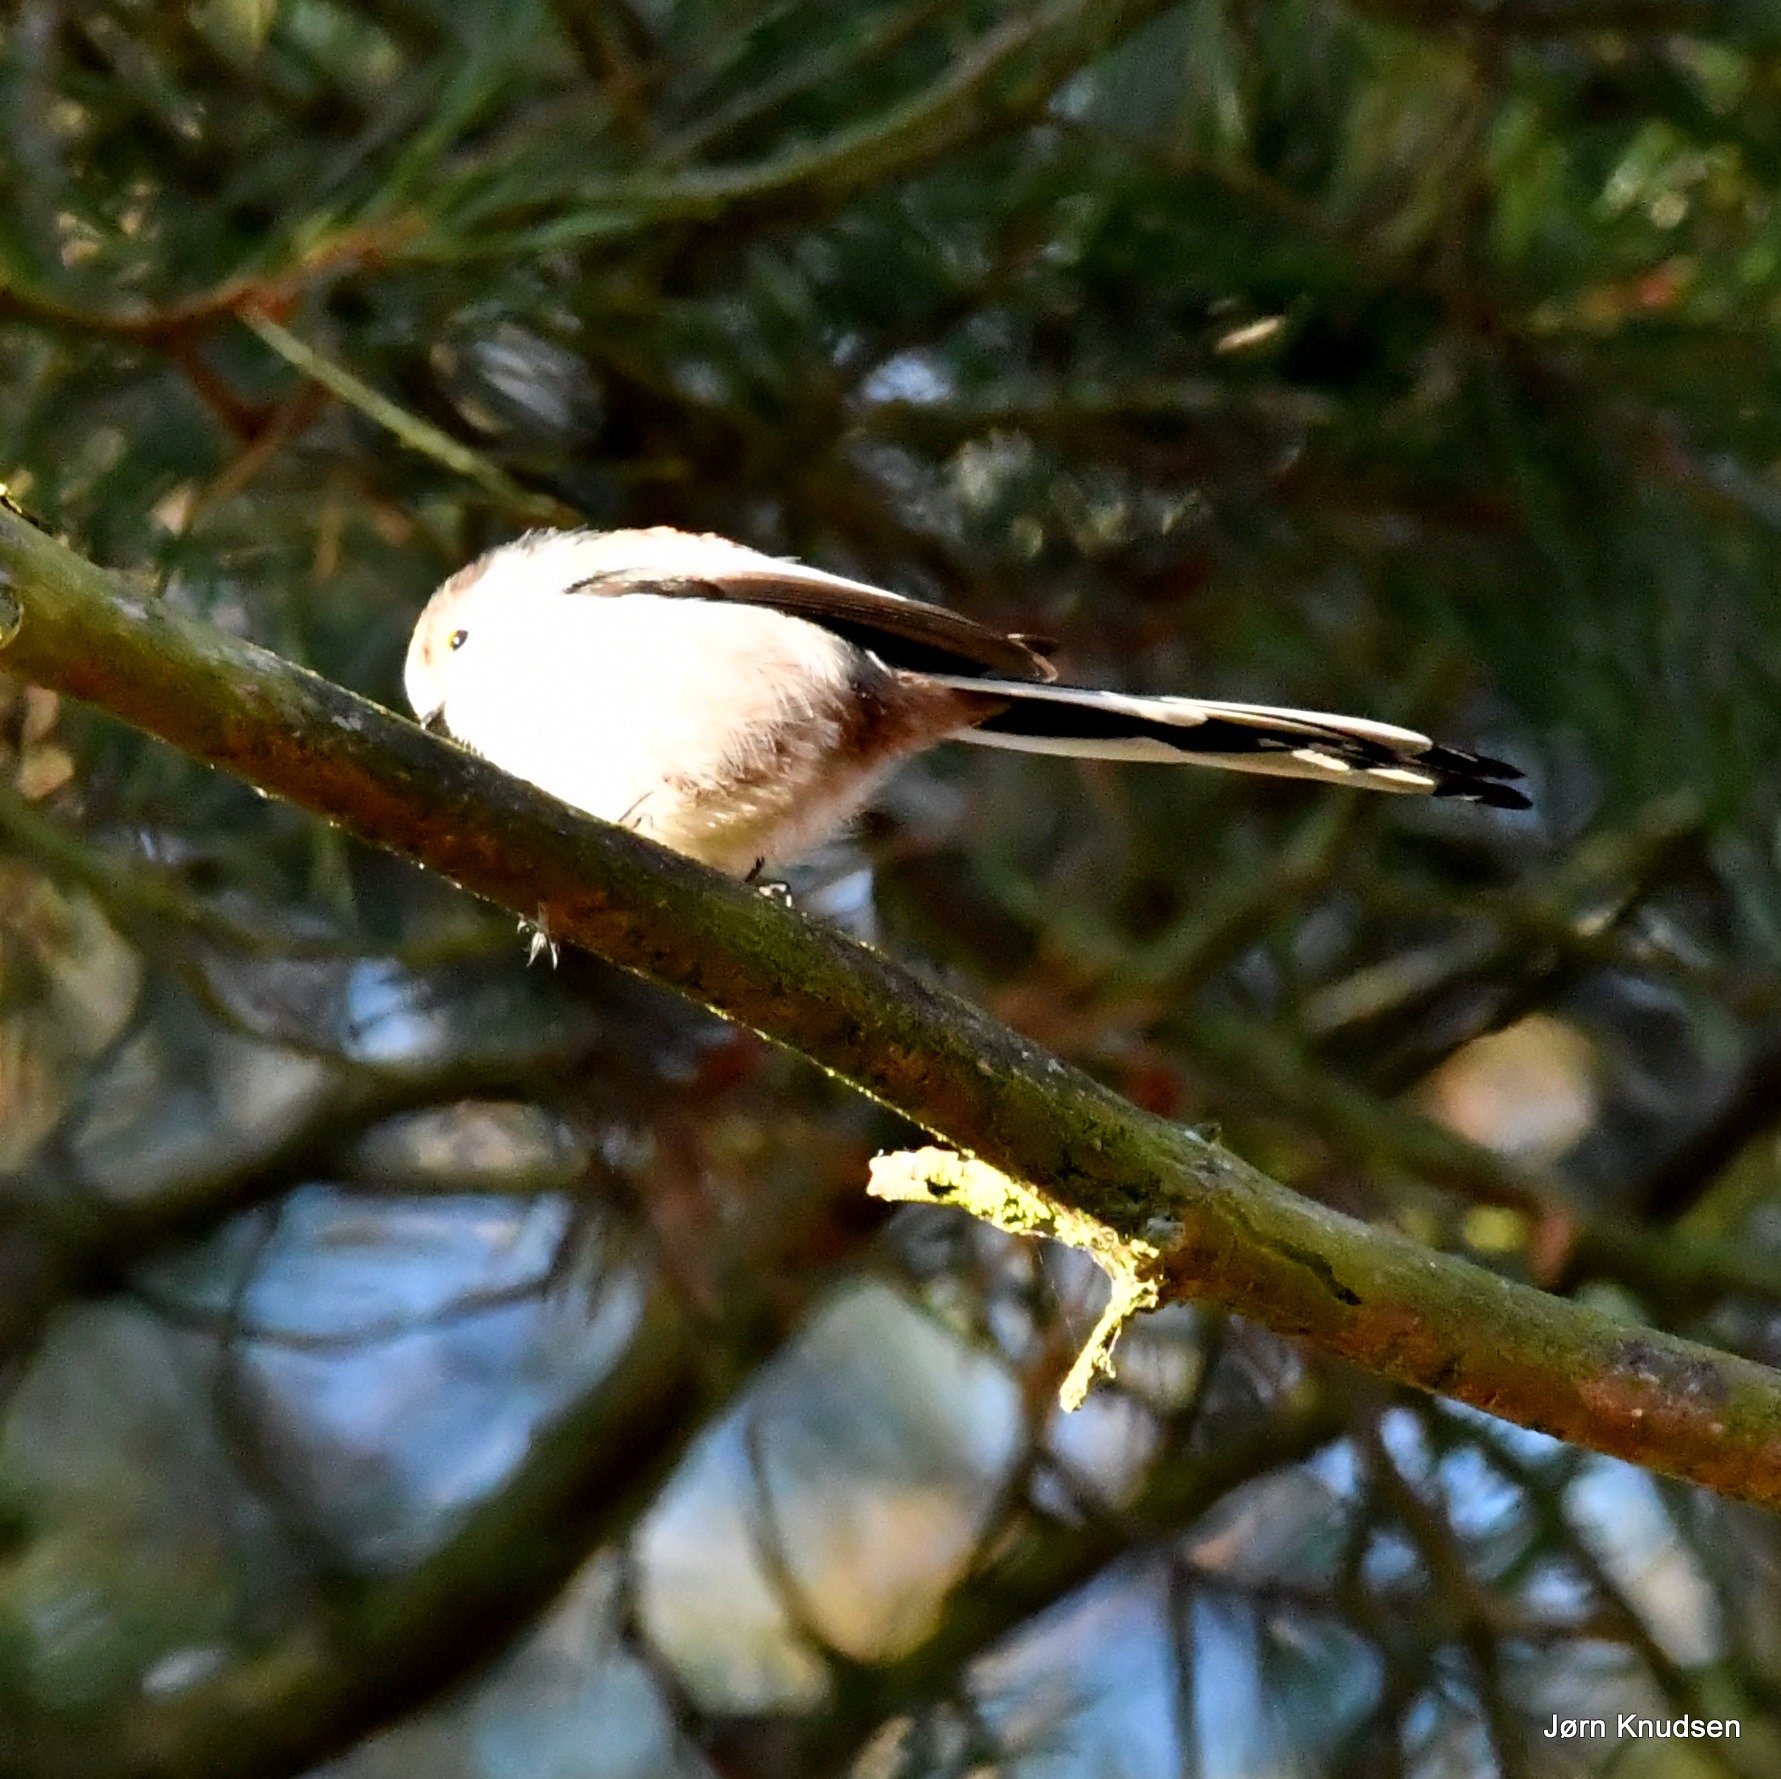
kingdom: Animalia
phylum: Chordata
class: Aves
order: Passeriformes
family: Aegithalidae
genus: Aegithalos
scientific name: Aegithalos caudatus
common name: Halemejse
